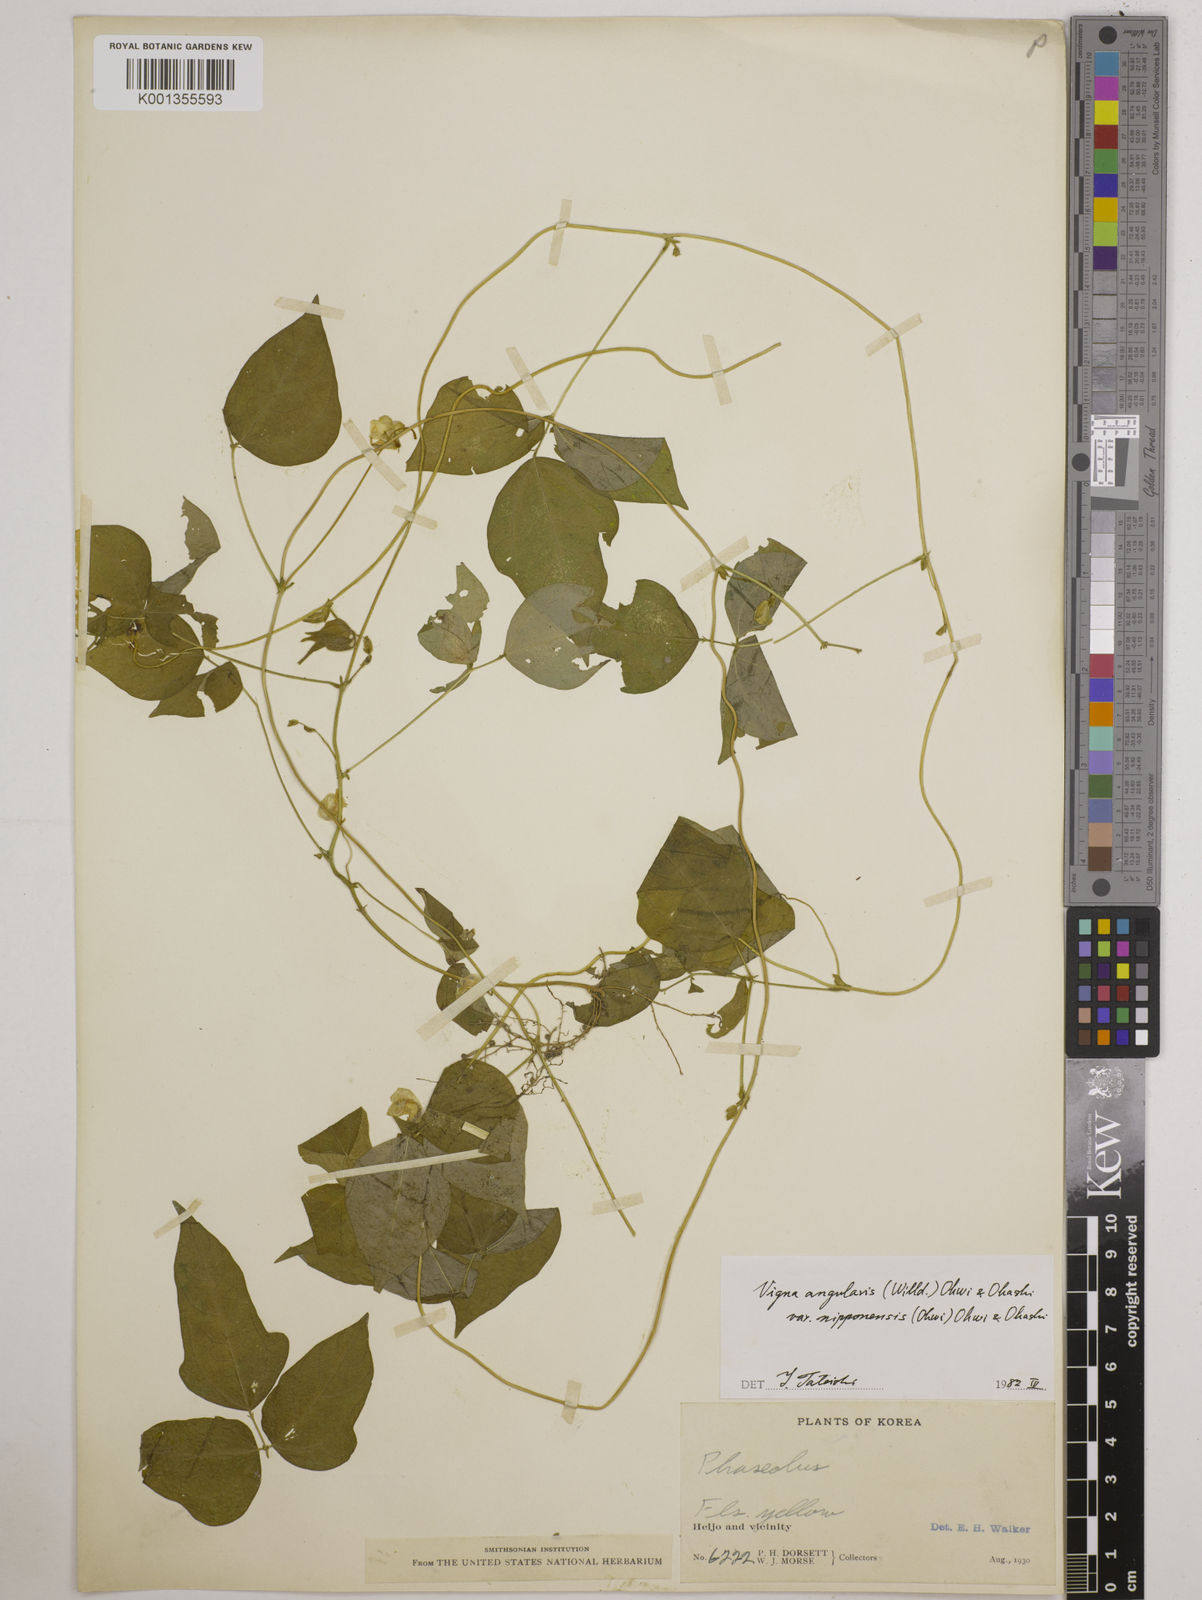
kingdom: Plantae
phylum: Tracheophyta
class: Magnoliopsida
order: Fabales
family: Fabaceae
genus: Vigna
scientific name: Vigna
